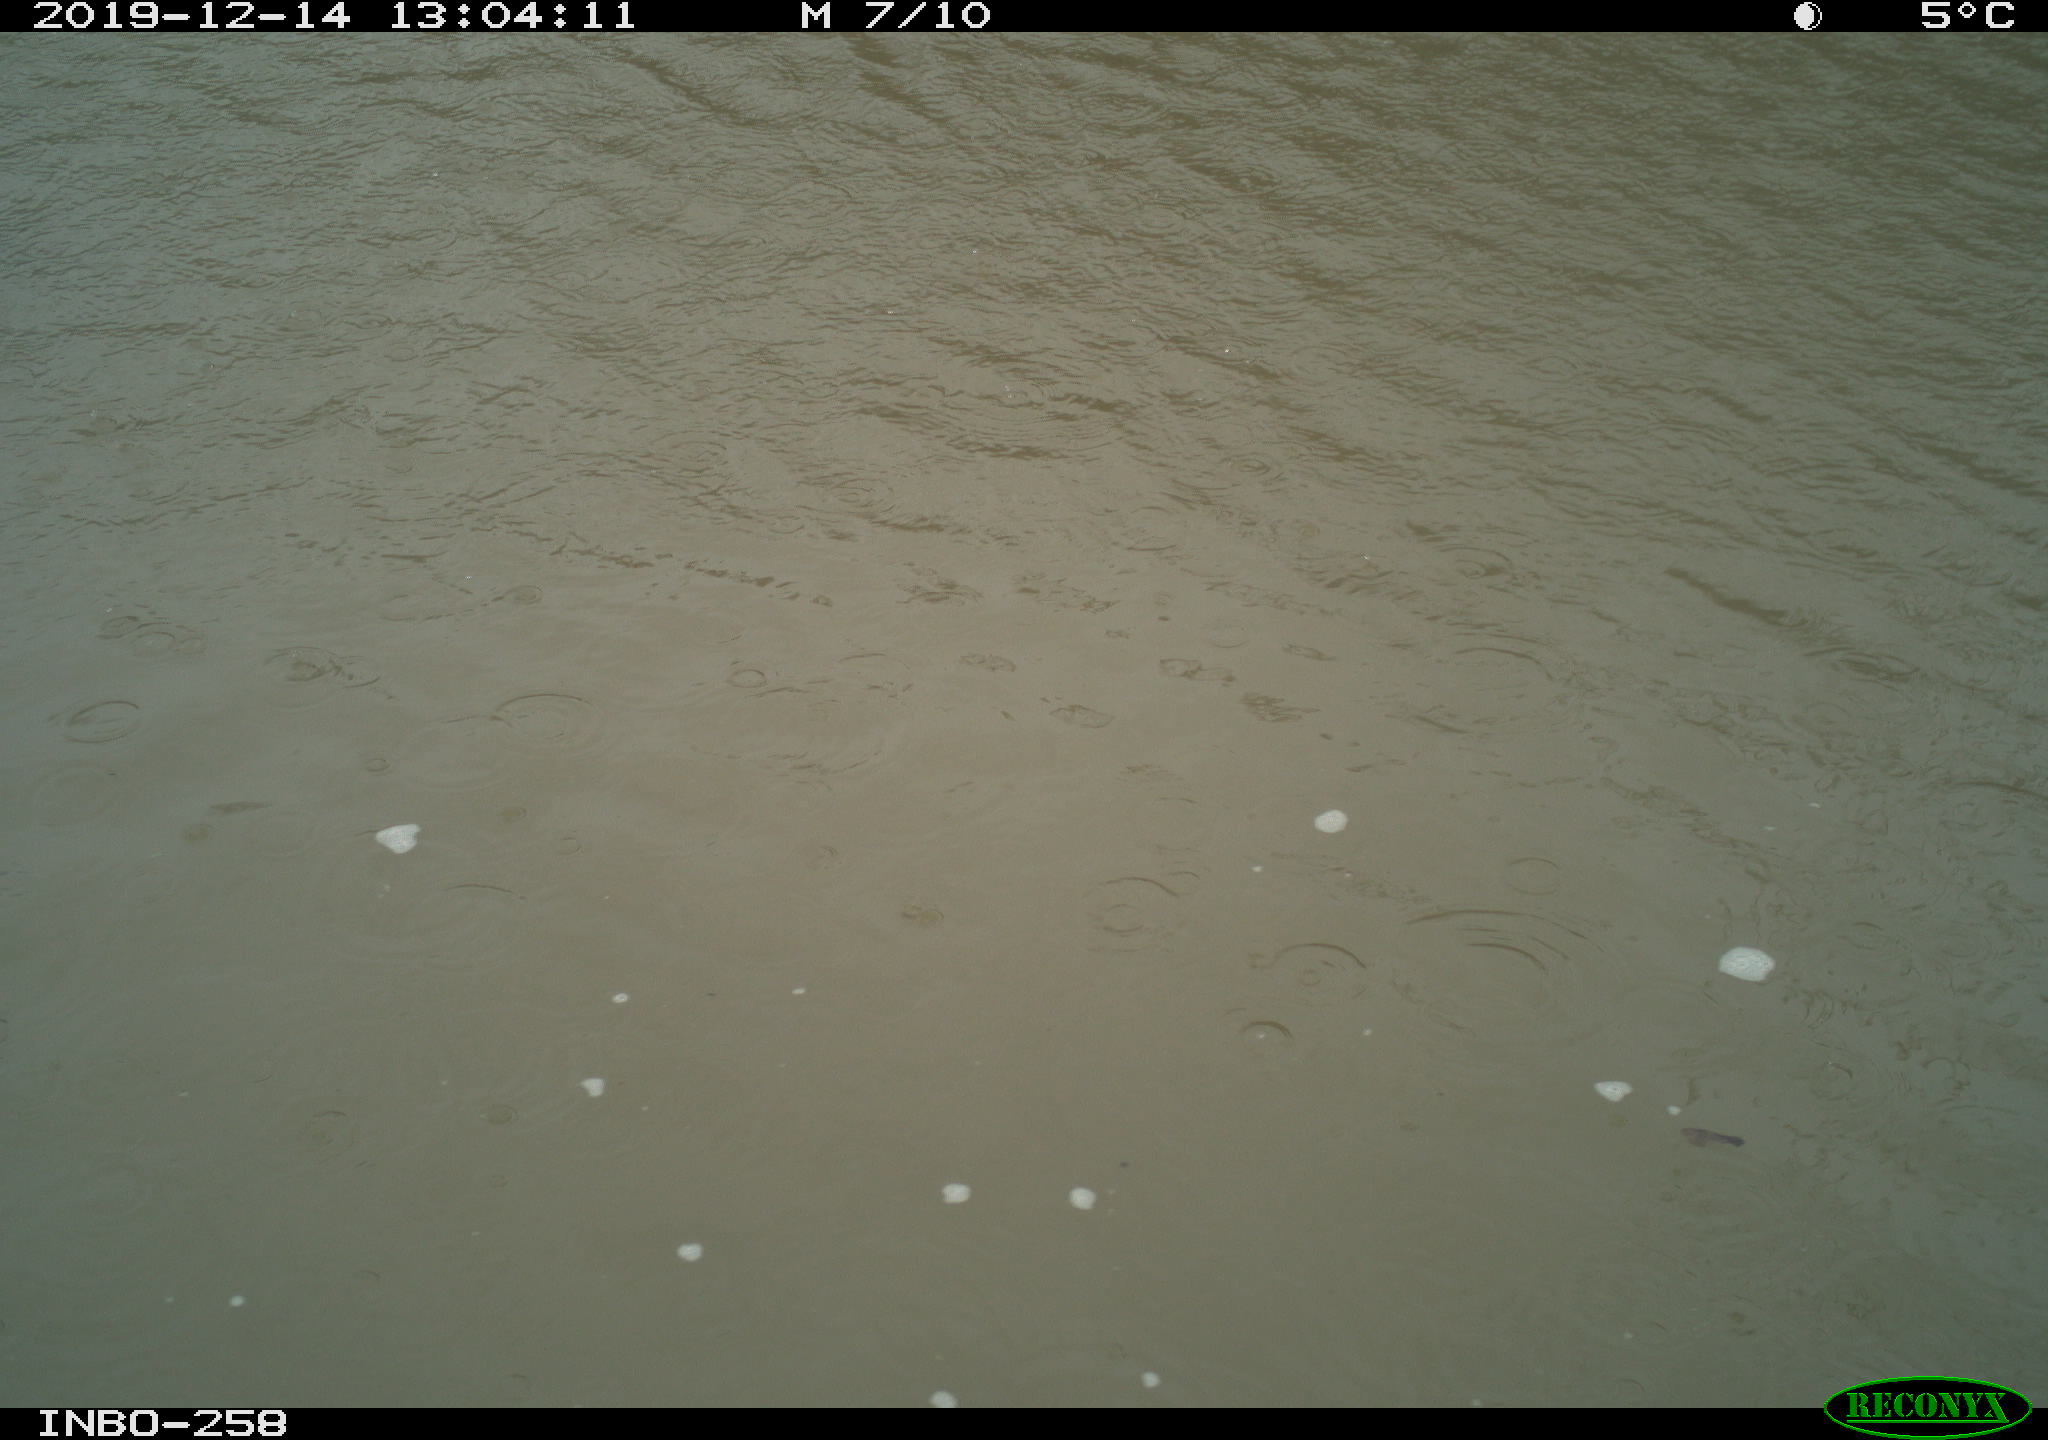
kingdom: Animalia
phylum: Chordata
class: Aves
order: Gruiformes
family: Rallidae
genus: Gallinula
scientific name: Gallinula chloropus
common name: Common moorhen
